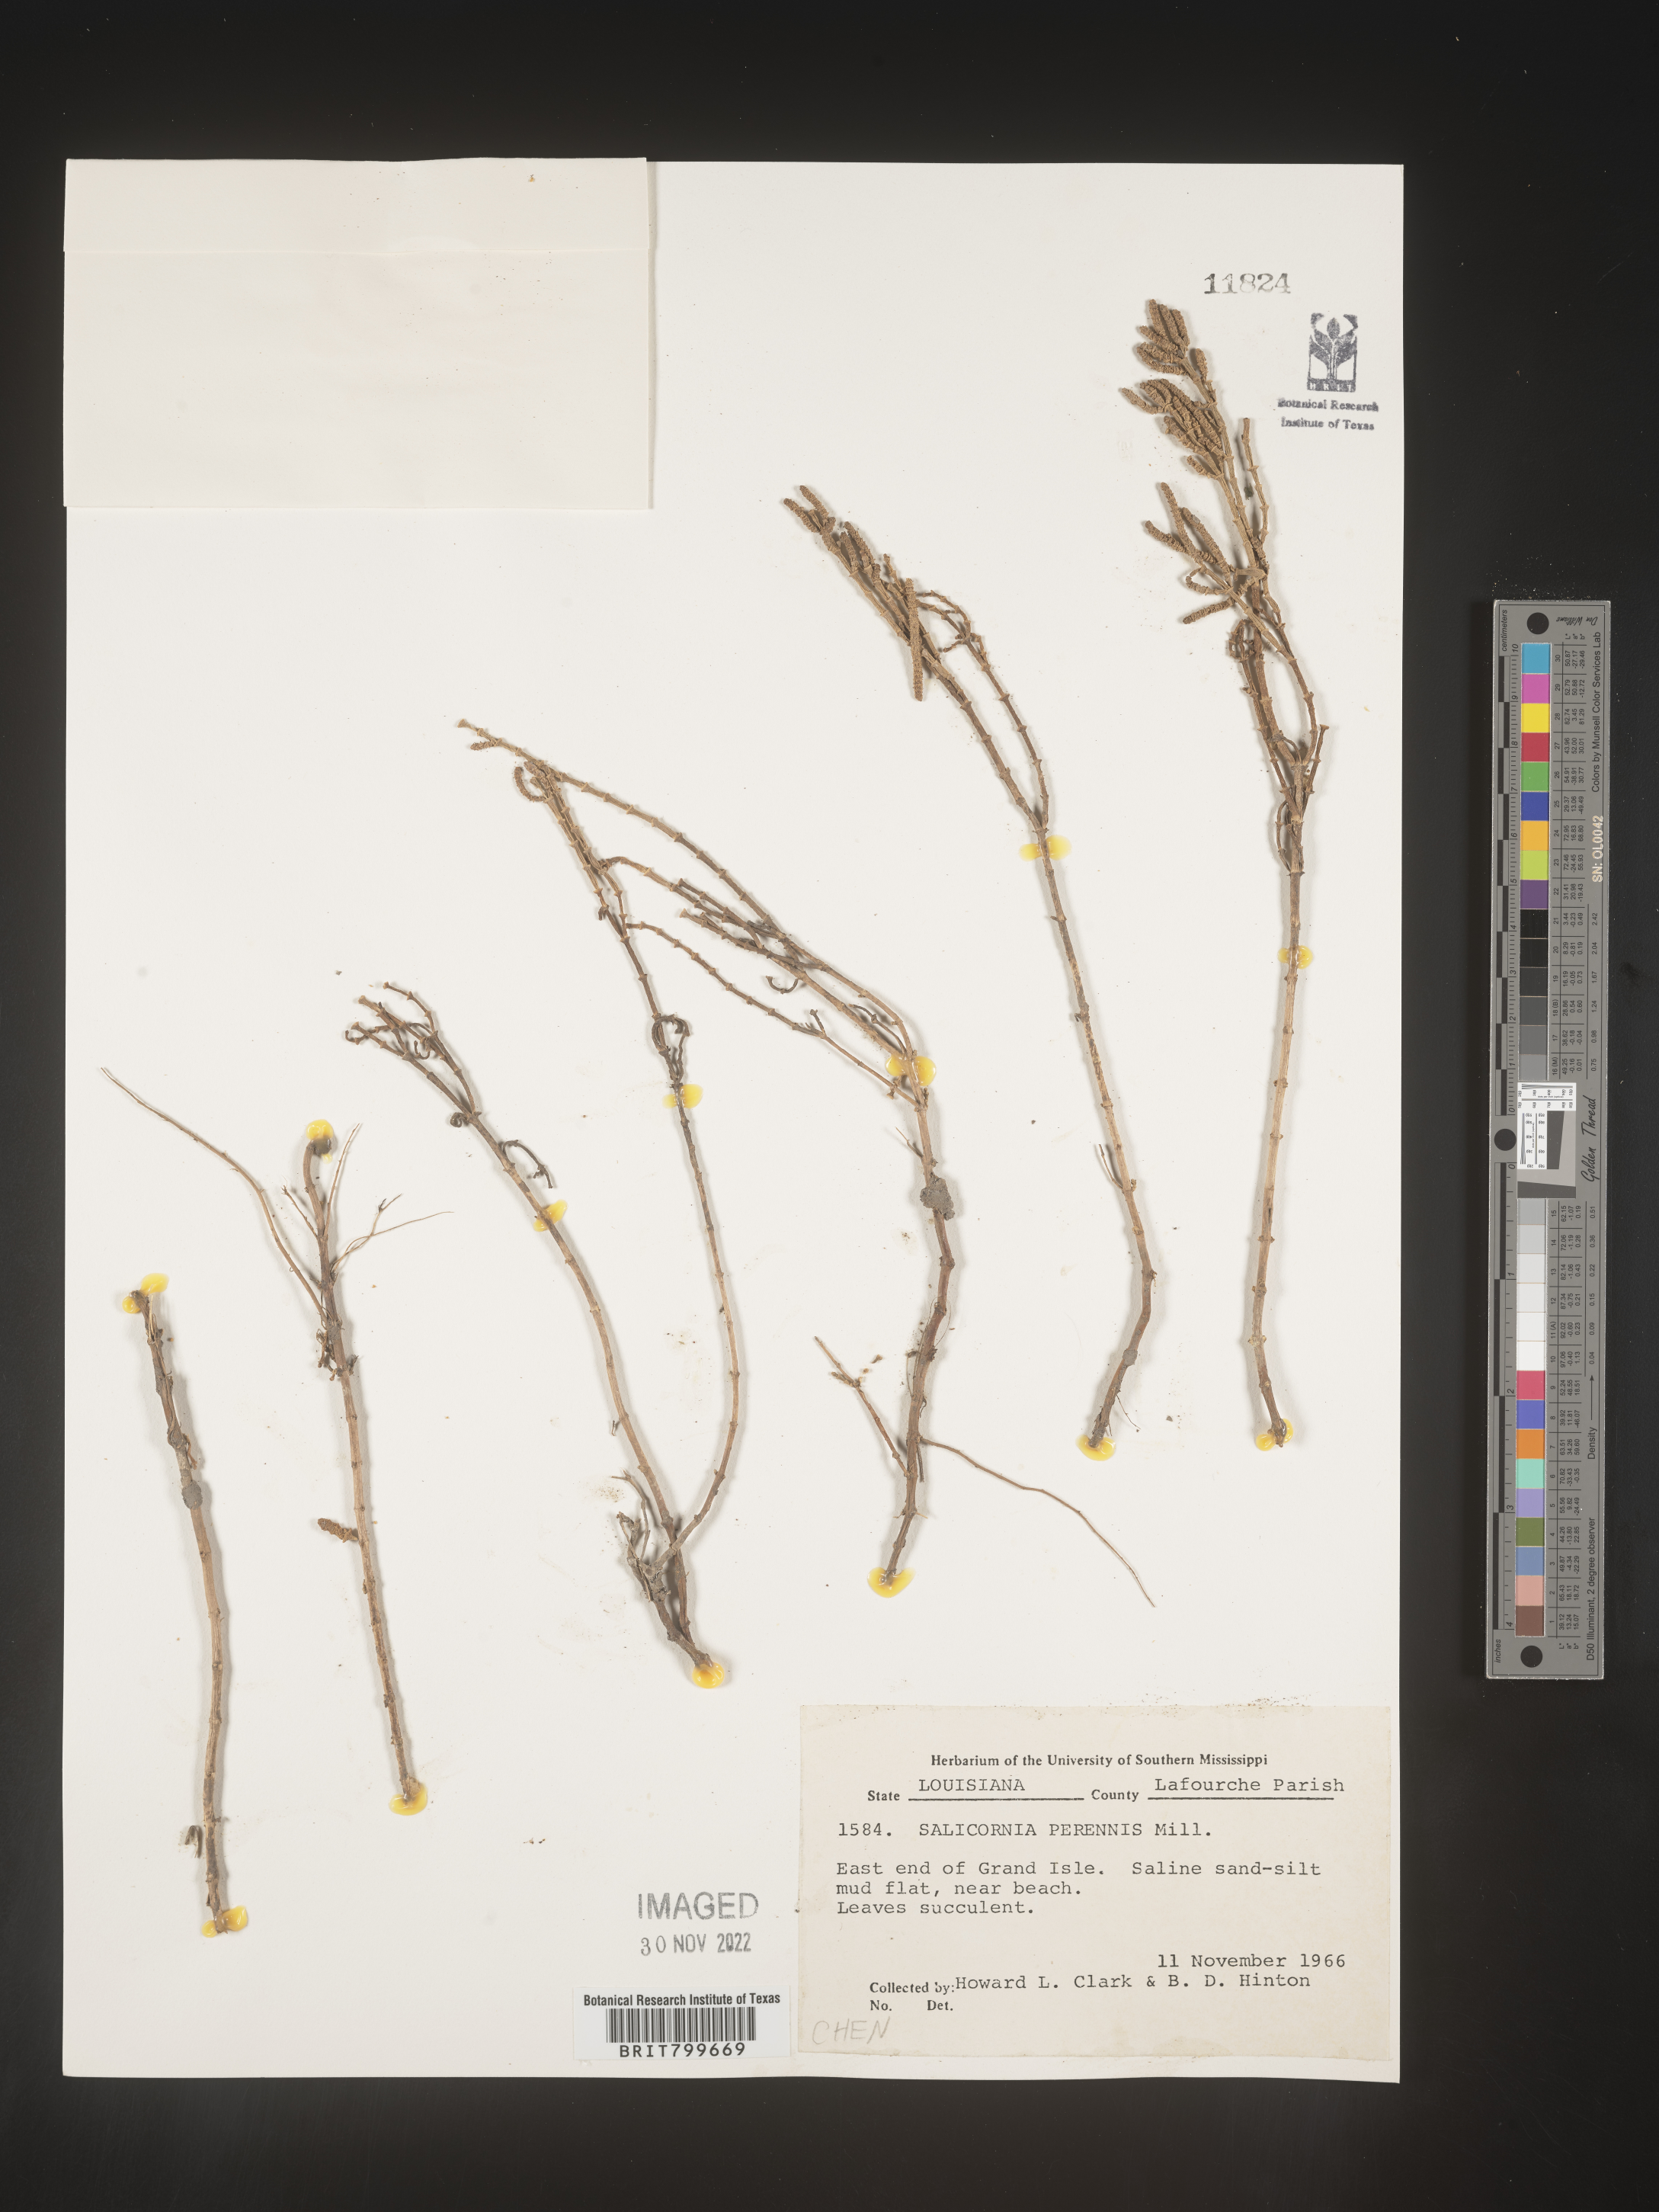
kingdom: Plantae
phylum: Tracheophyta
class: Magnoliopsida
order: Caryophyllales
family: Amaranthaceae
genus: Salicornia
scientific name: Salicornia
